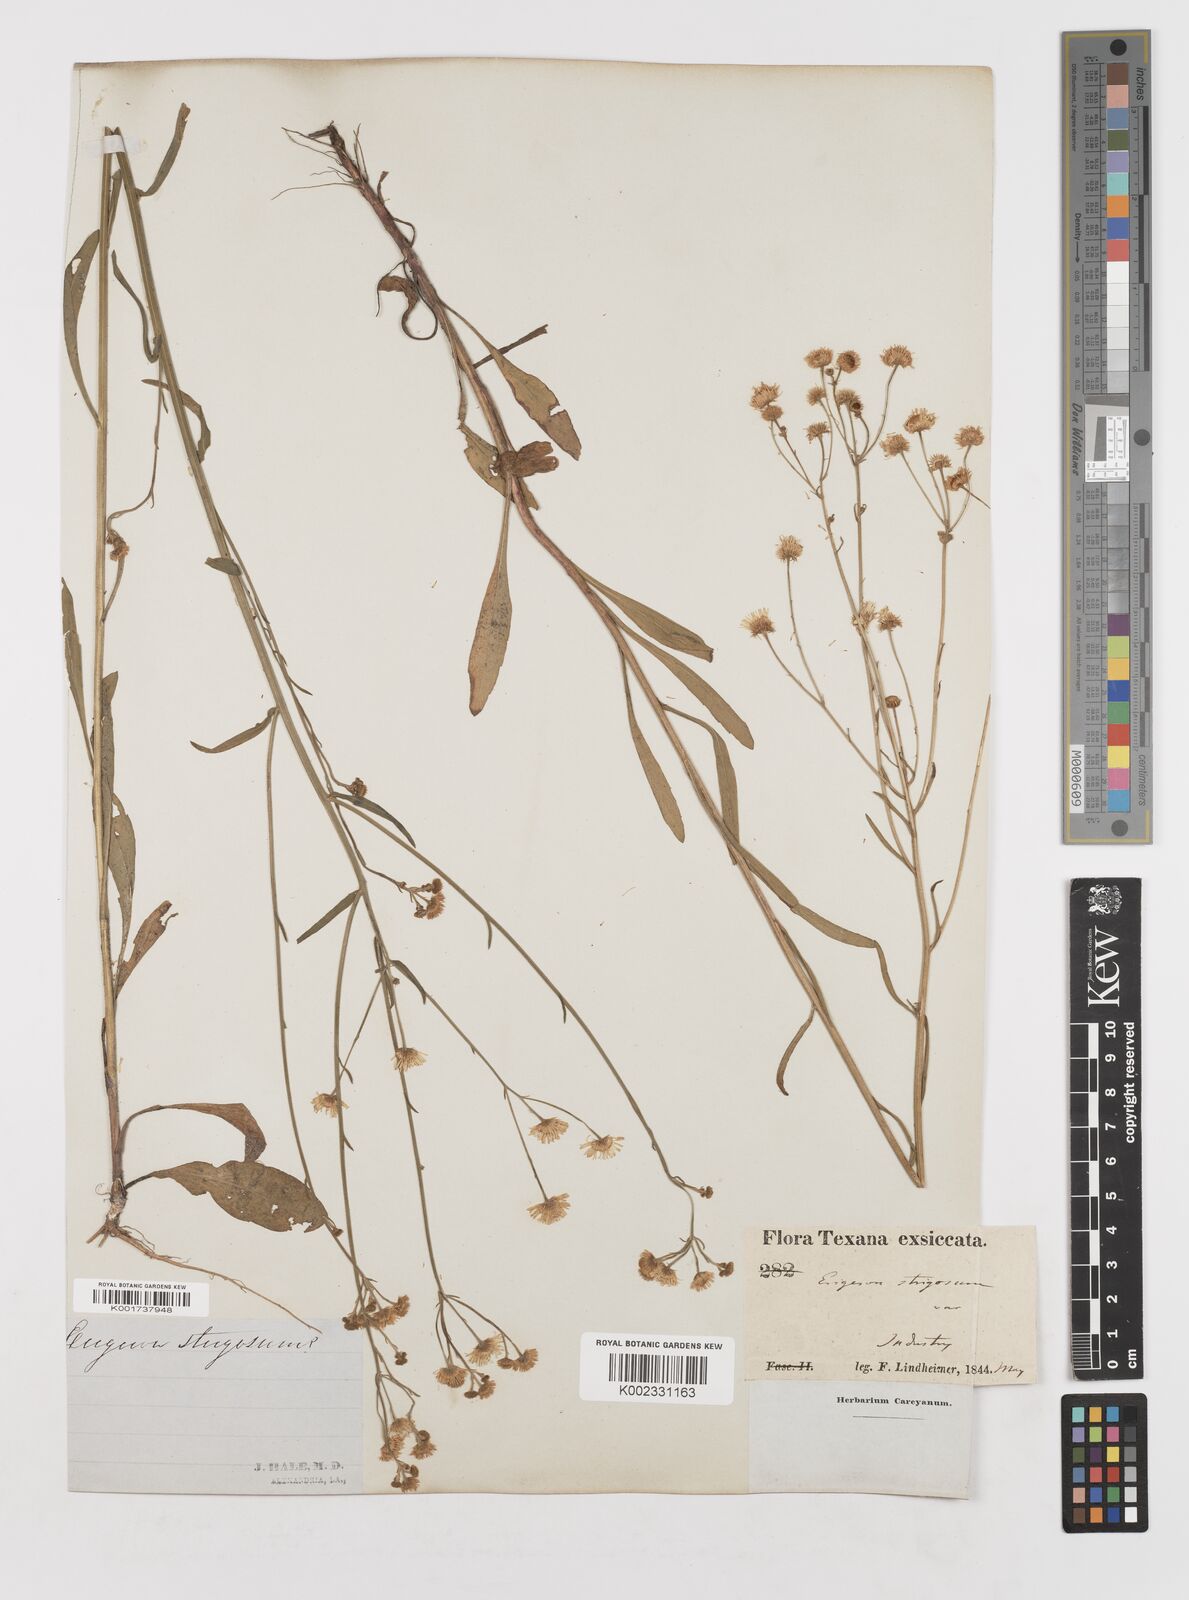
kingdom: Plantae
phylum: Tracheophyta
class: Magnoliopsida
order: Asterales
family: Asteraceae
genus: Erigeron
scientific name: Erigeron strigosus
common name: Common eastern fleabane
